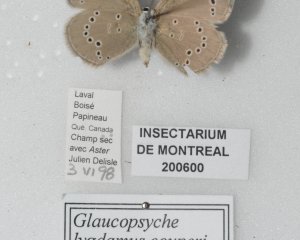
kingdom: Animalia
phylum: Arthropoda
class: Insecta
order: Lepidoptera
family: Lycaenidae
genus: Glaucopsyche
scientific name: Glaucopsyche lygdamus
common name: Silvery Blue
